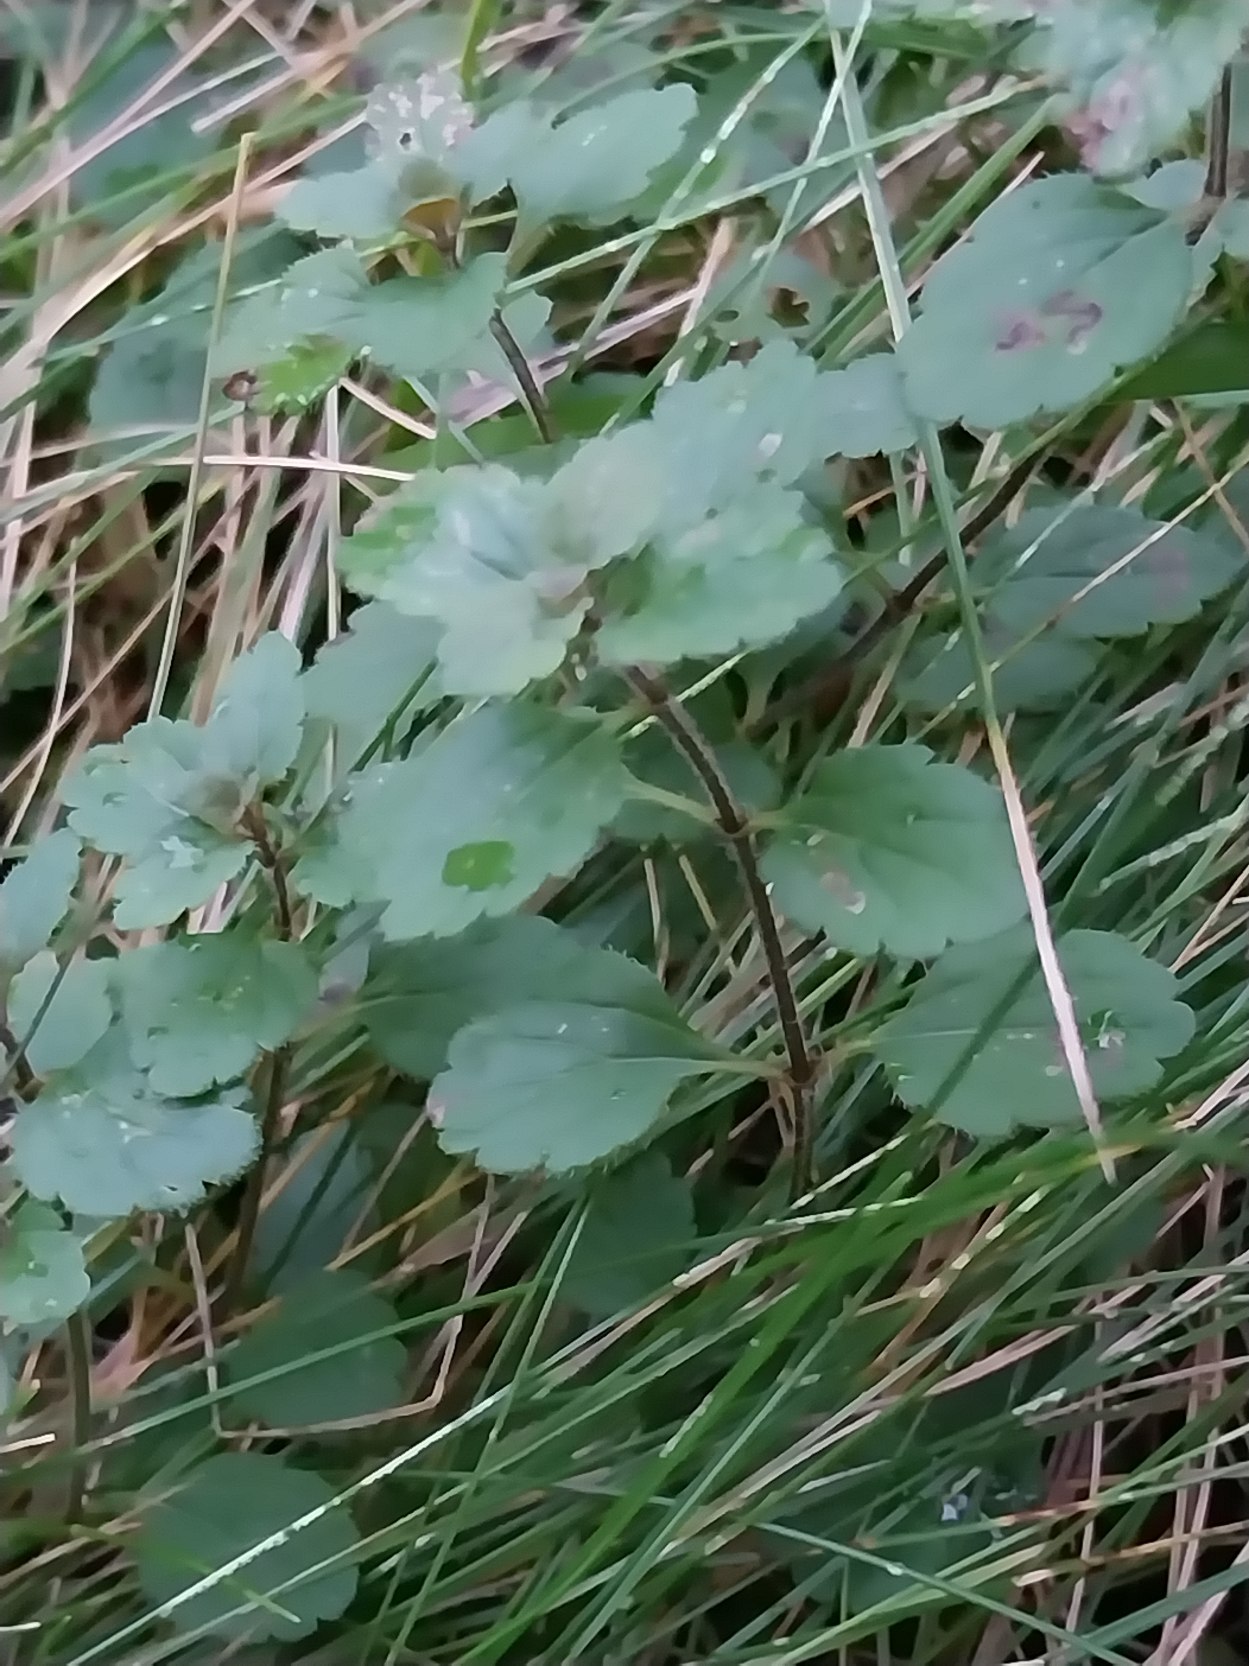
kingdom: Plantae
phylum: Tracheophyta
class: Magnoliopsida
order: Lamiales
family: Plantaginaceae
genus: Veronica
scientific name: Veronica chamaedrys
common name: Tveskægget ærenpris
